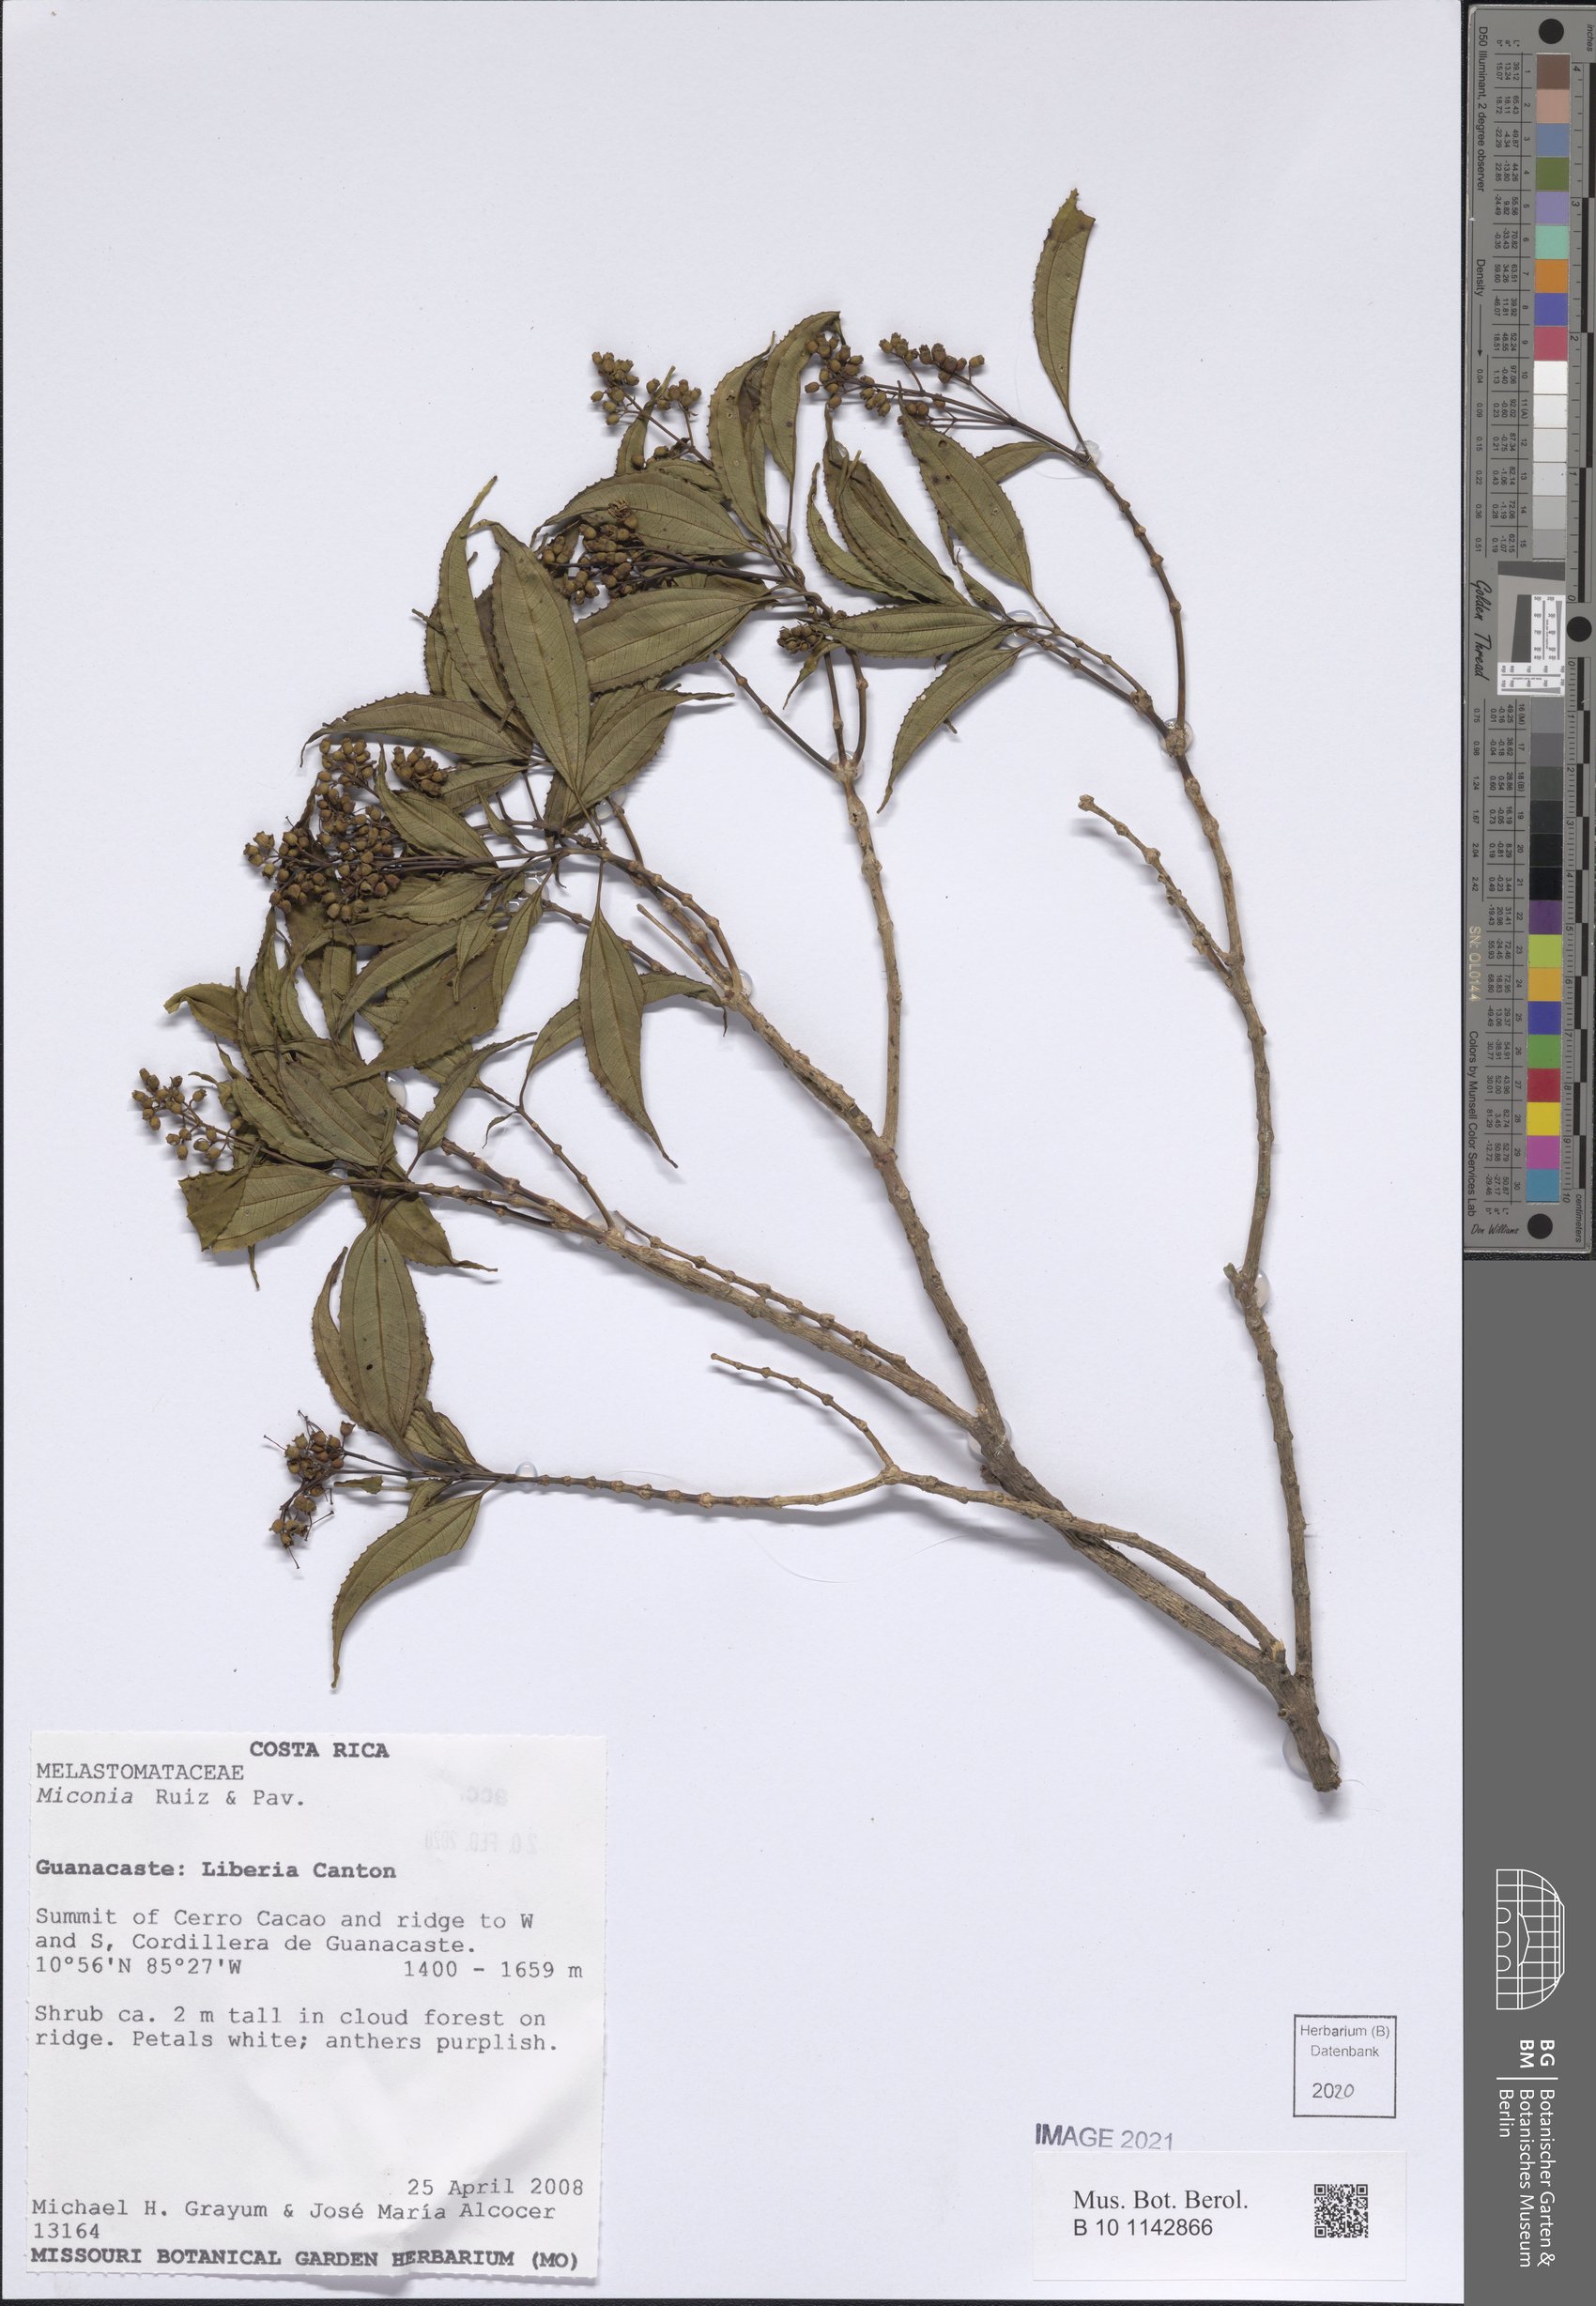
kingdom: Plantae
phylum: Tracheophyta
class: Magnoliopsida
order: Myrtales
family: Melastomataceae
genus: Miconia
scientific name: Miconia
